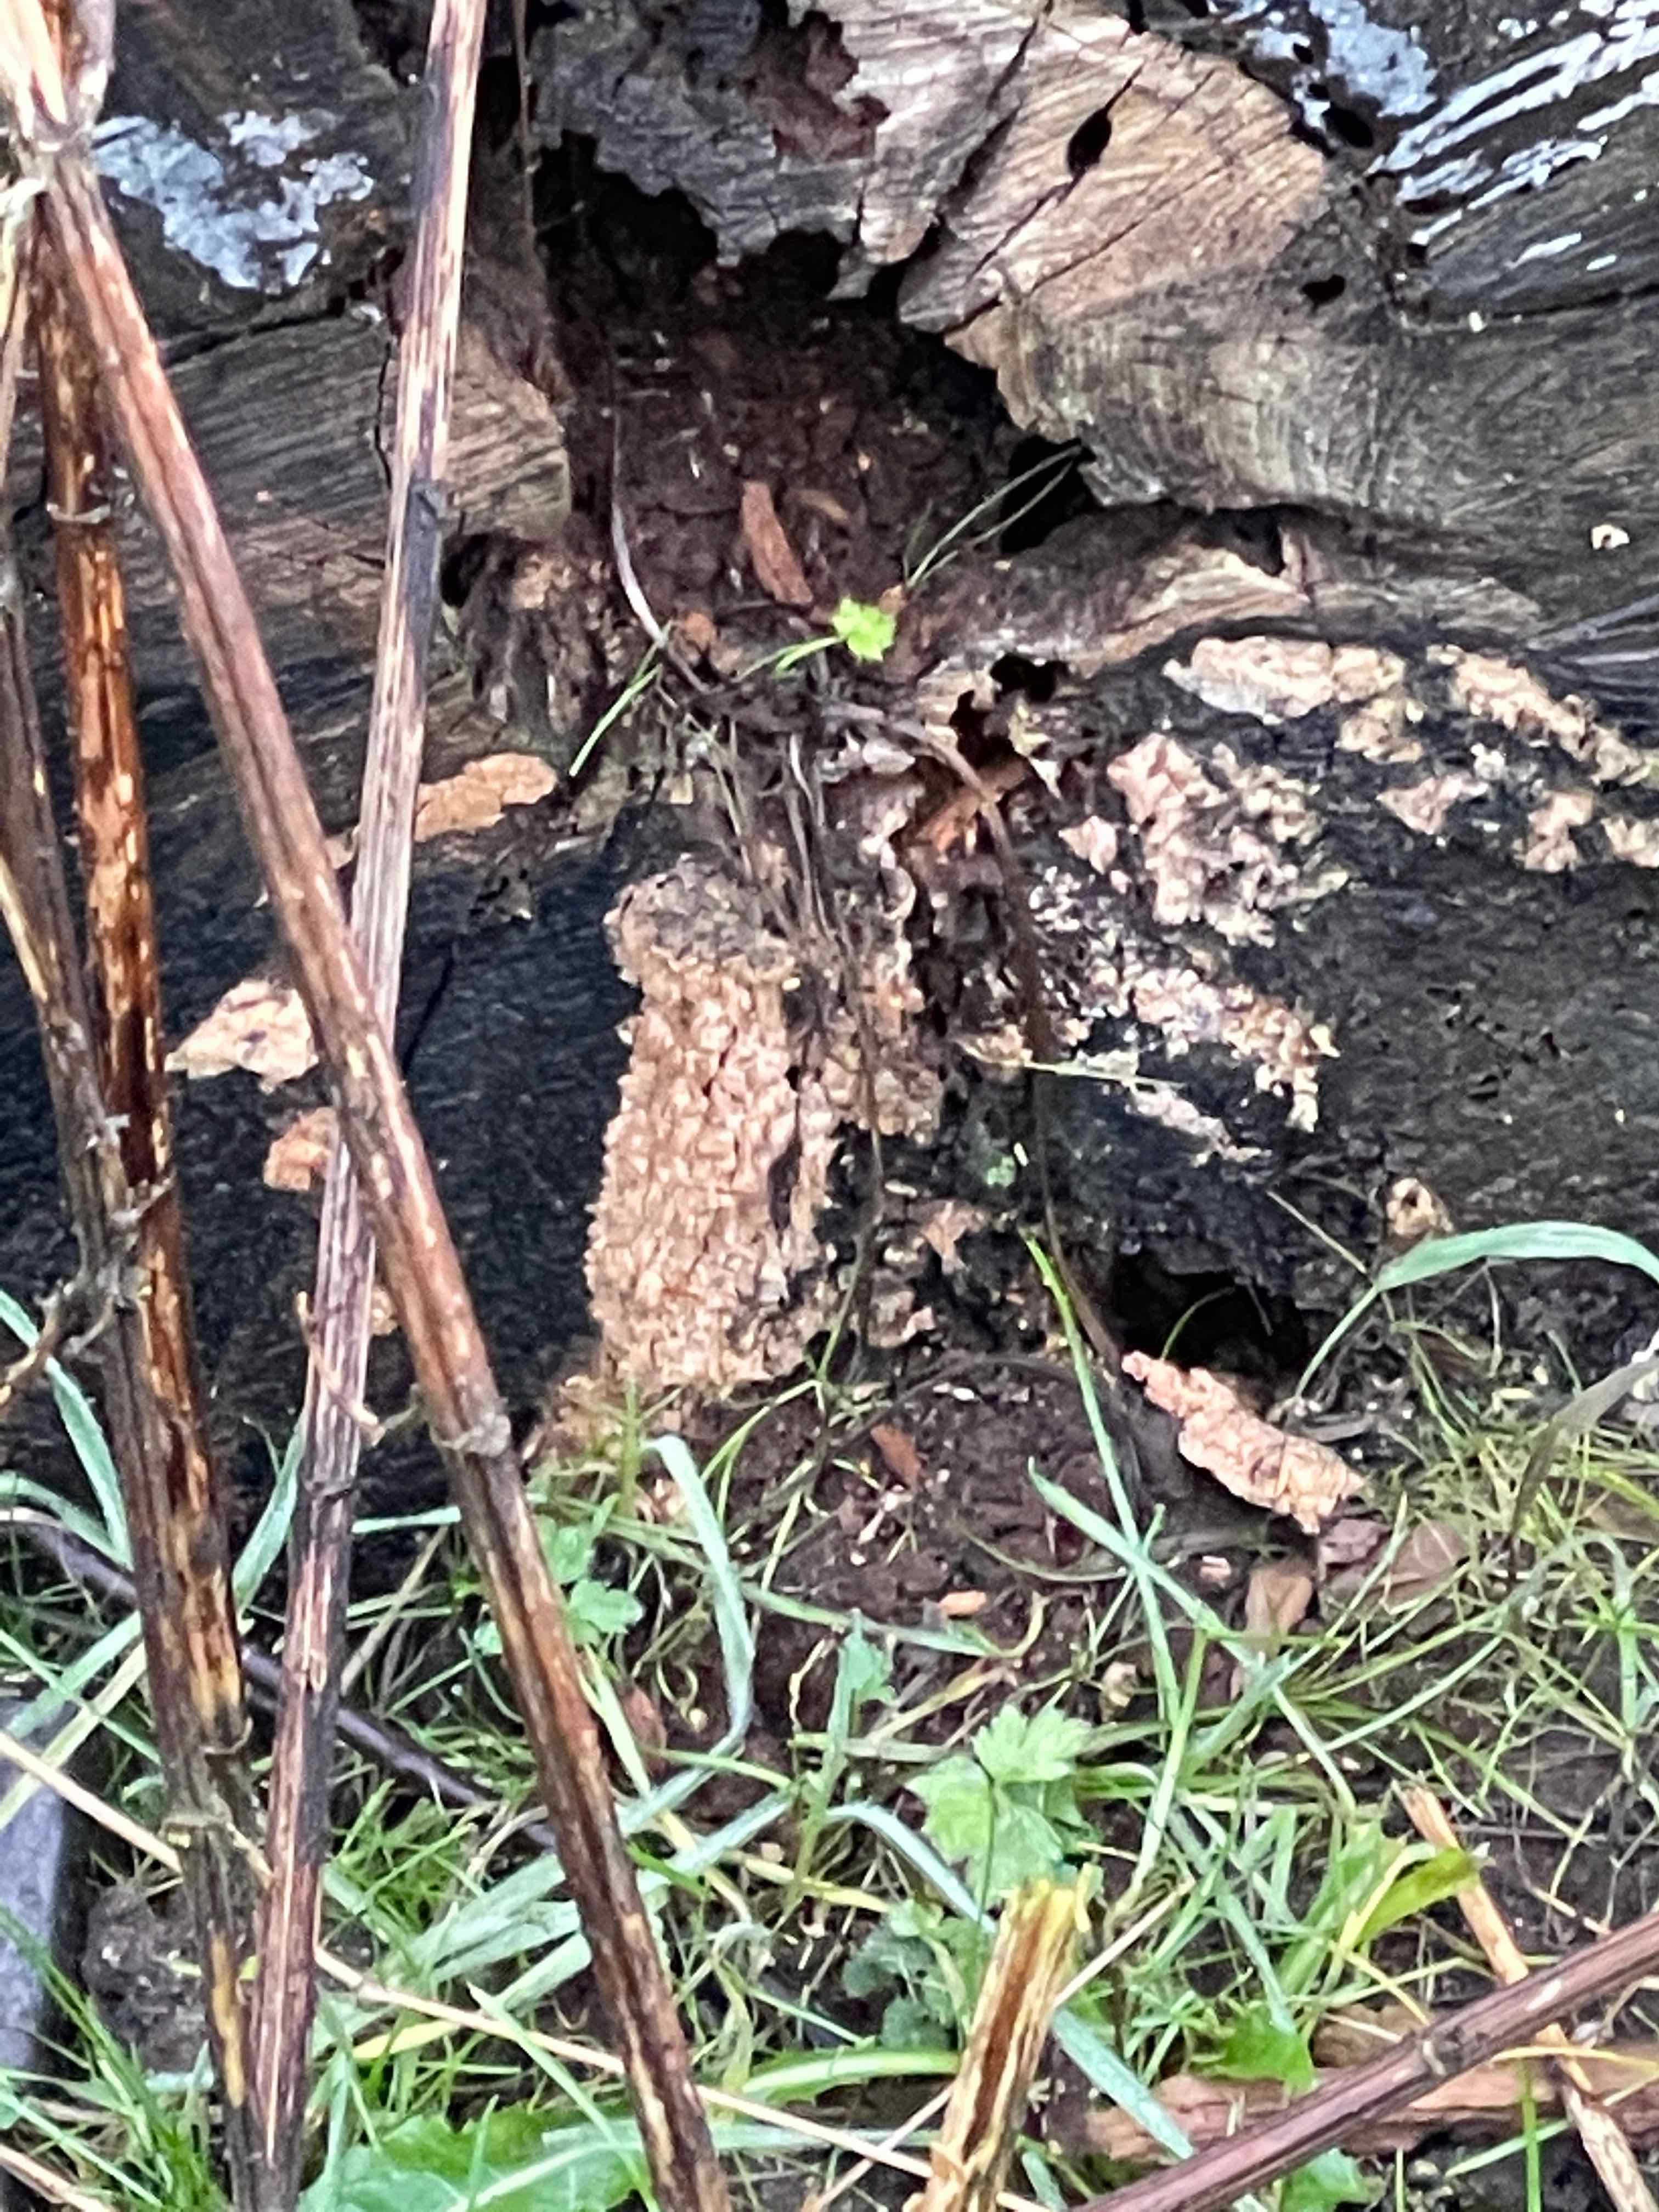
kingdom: Fungi
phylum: Basidiomycota
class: Agaricomycetes
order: Polyporales
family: Meruliaceae
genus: Phlebia
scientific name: Phlebia radiata
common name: stråle-åresvamp
